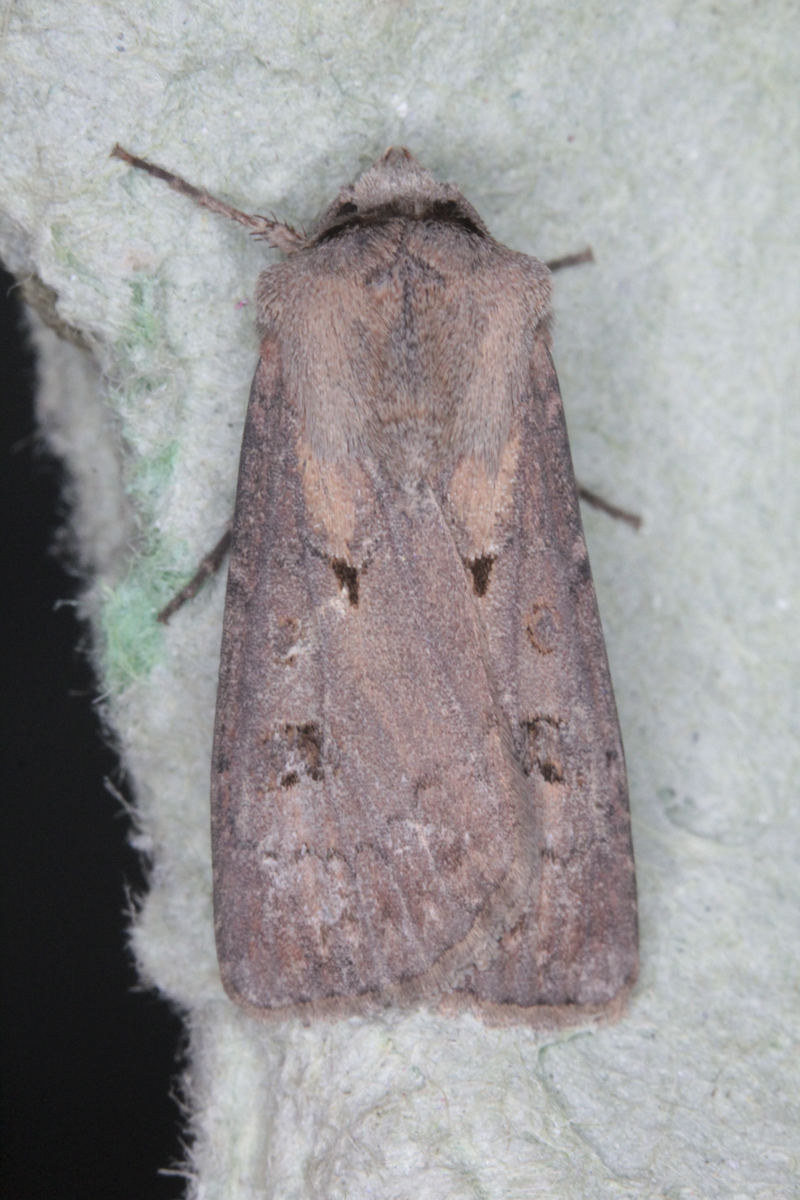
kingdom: Animalia
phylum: Arthropoda
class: Insecta
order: Lepidoptera
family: Noctuidae
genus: Agrotis
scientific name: Agrotis exclamationis
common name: Heart and dart
